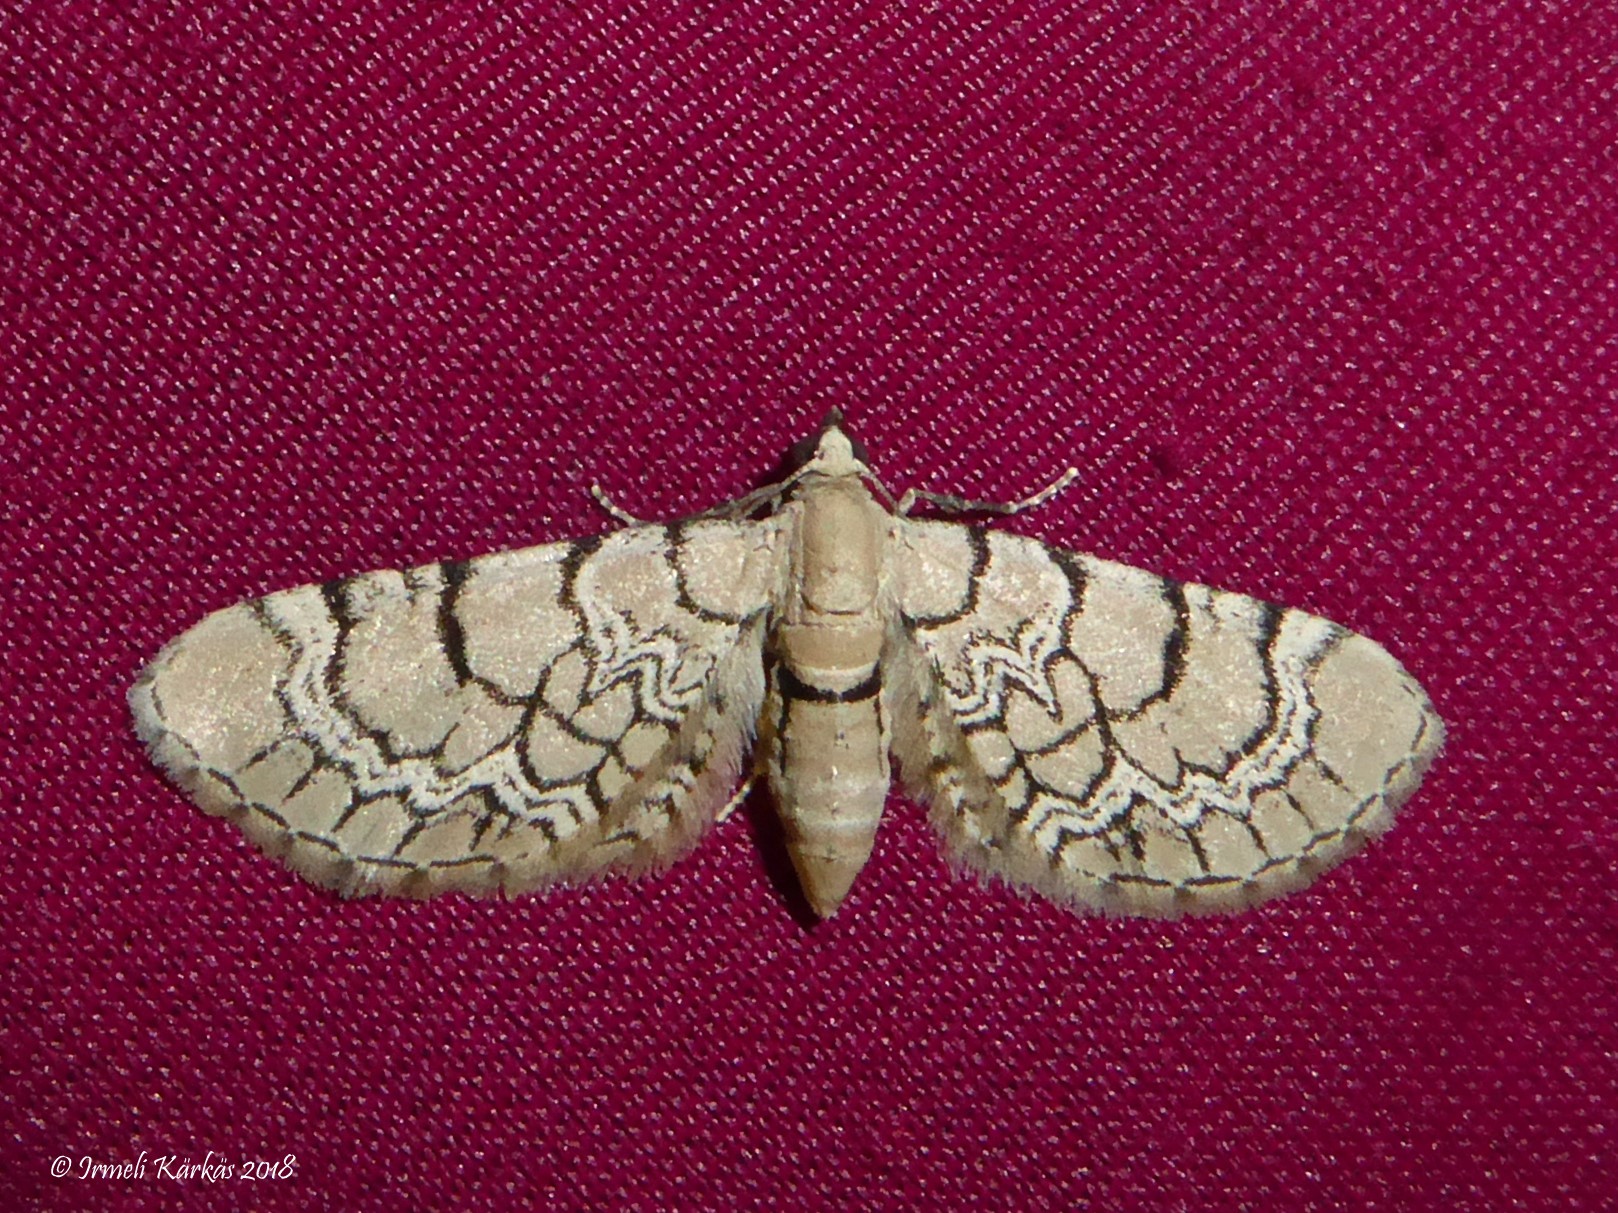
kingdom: Animalia
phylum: Arthropoda
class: Insecta
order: Lepidoptera
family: Geometridae
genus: Eupithecia
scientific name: Eupithecia venosata
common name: Netted pug
